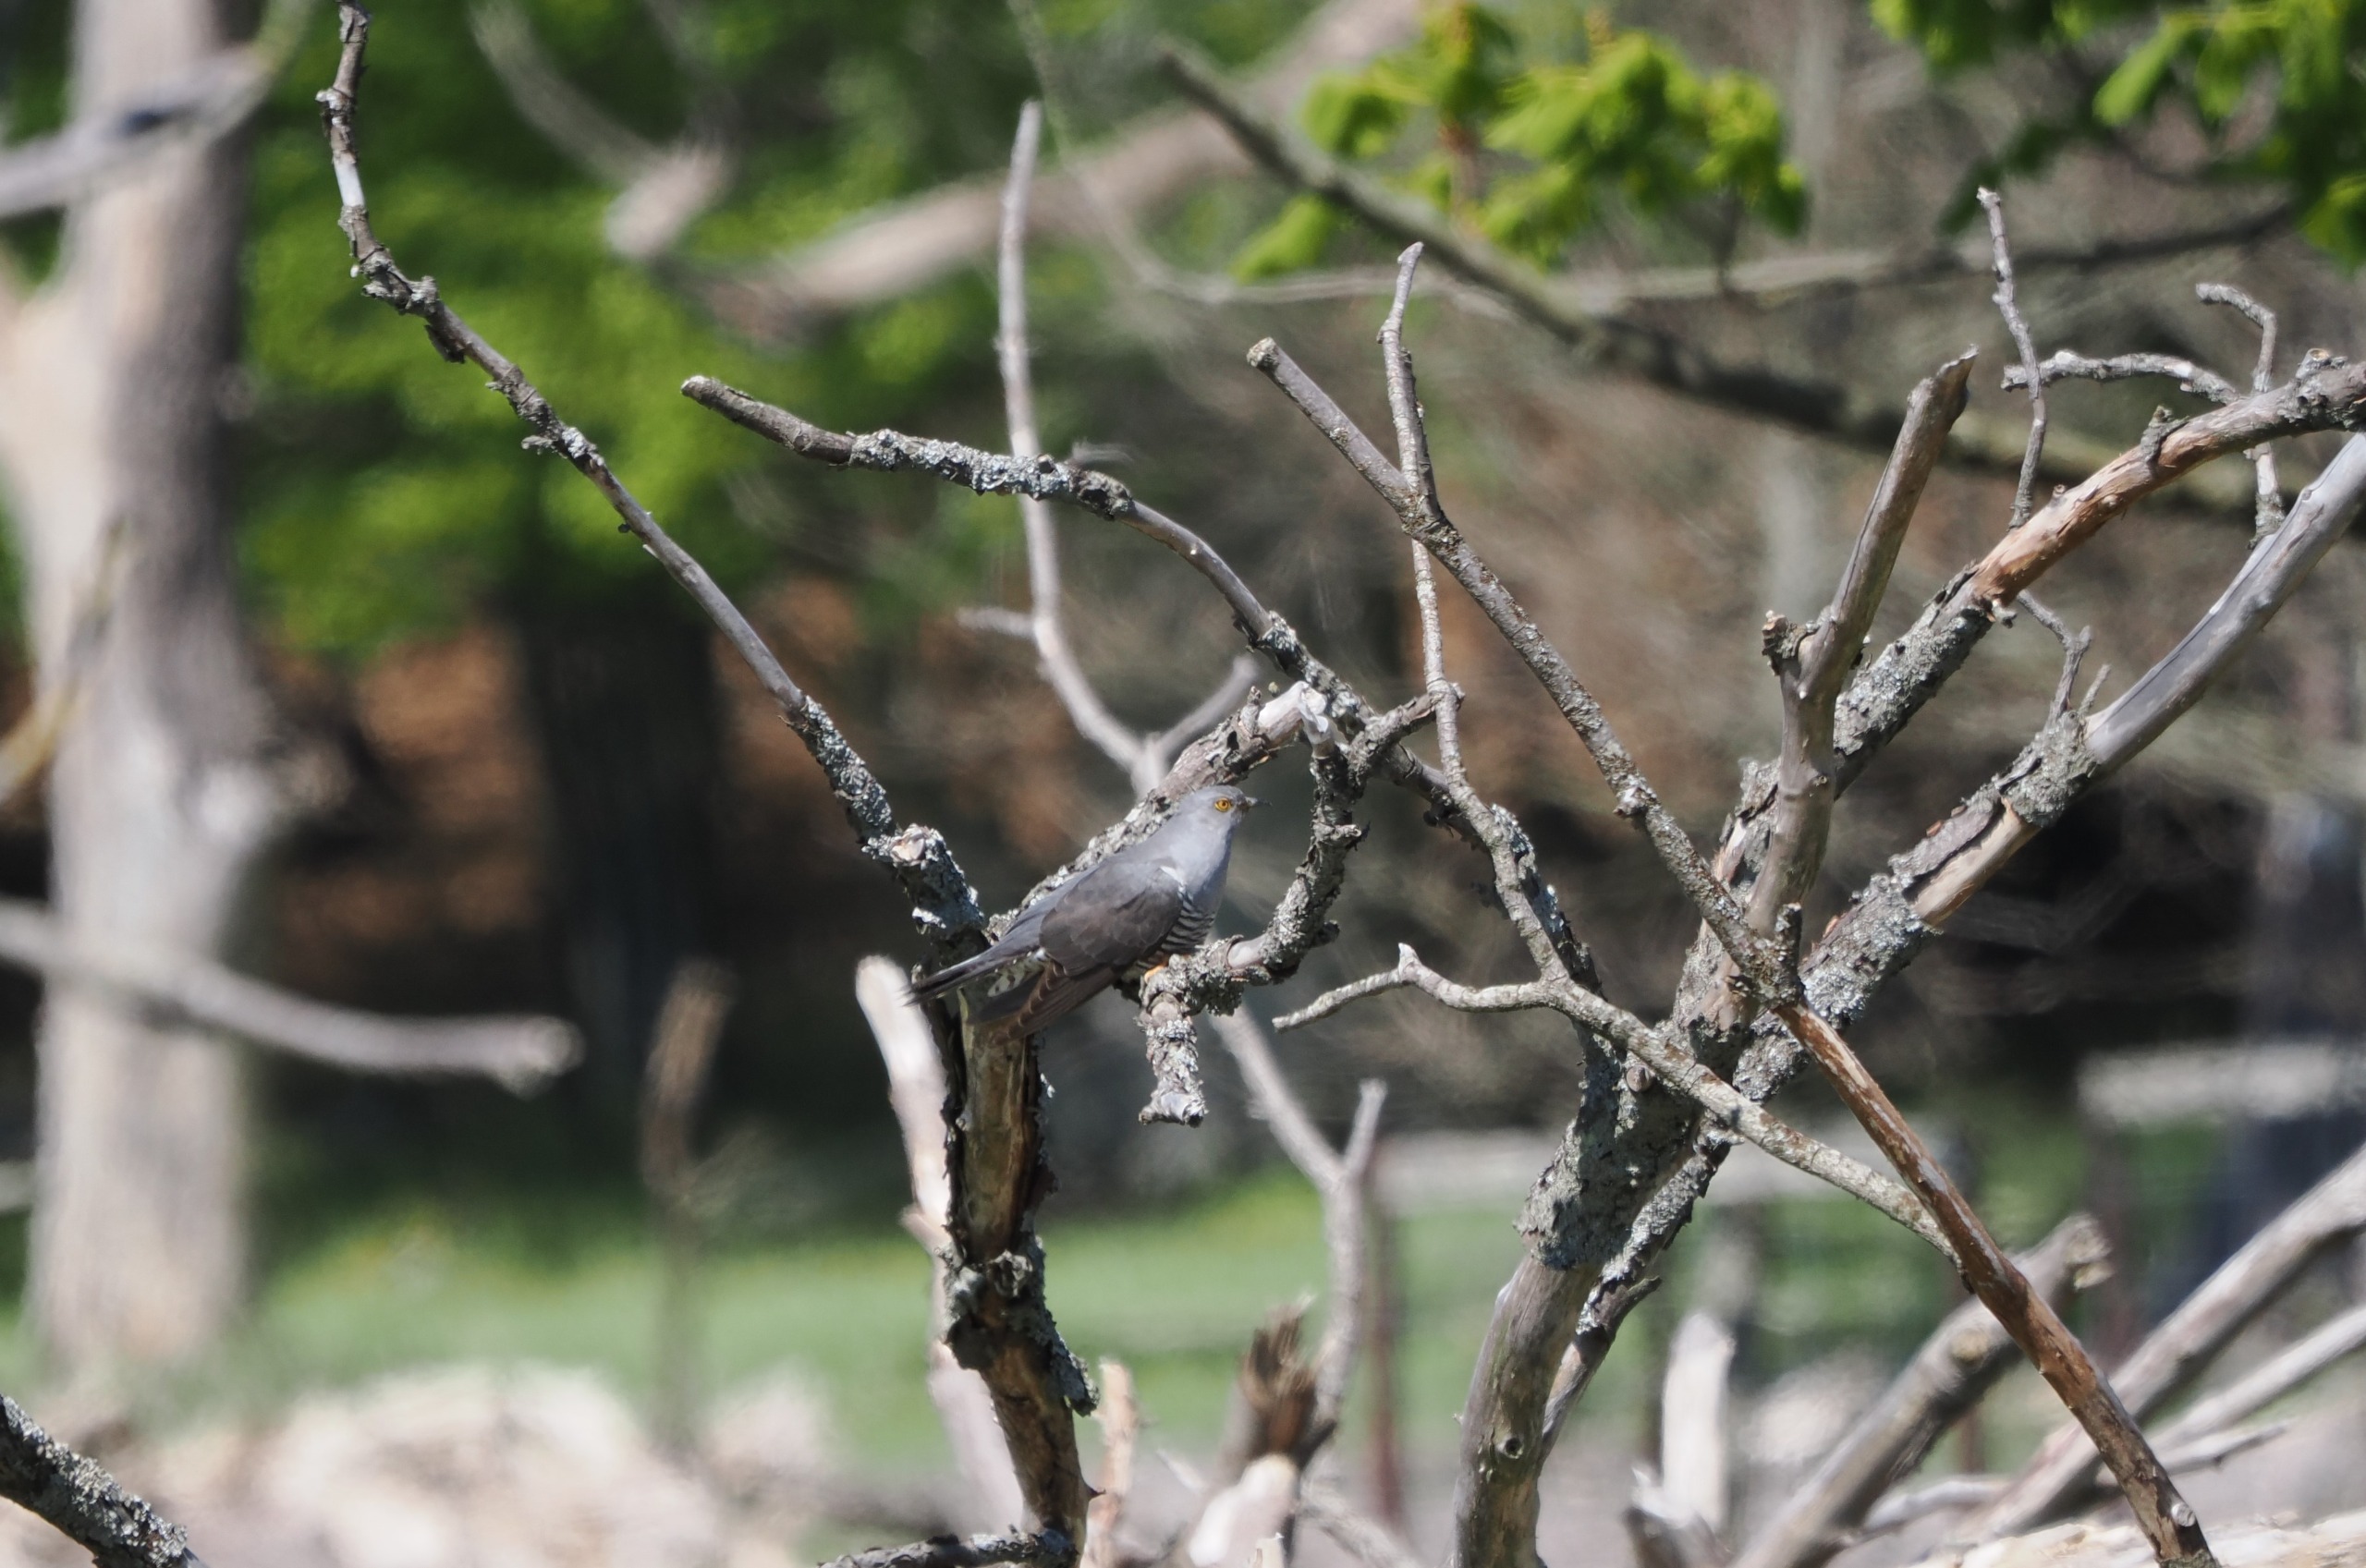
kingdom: Animalia
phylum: Chordata
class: Aves
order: Cuculiformes
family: Cuculidae
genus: Cuculus
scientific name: Cuculus canorus
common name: Gøg
